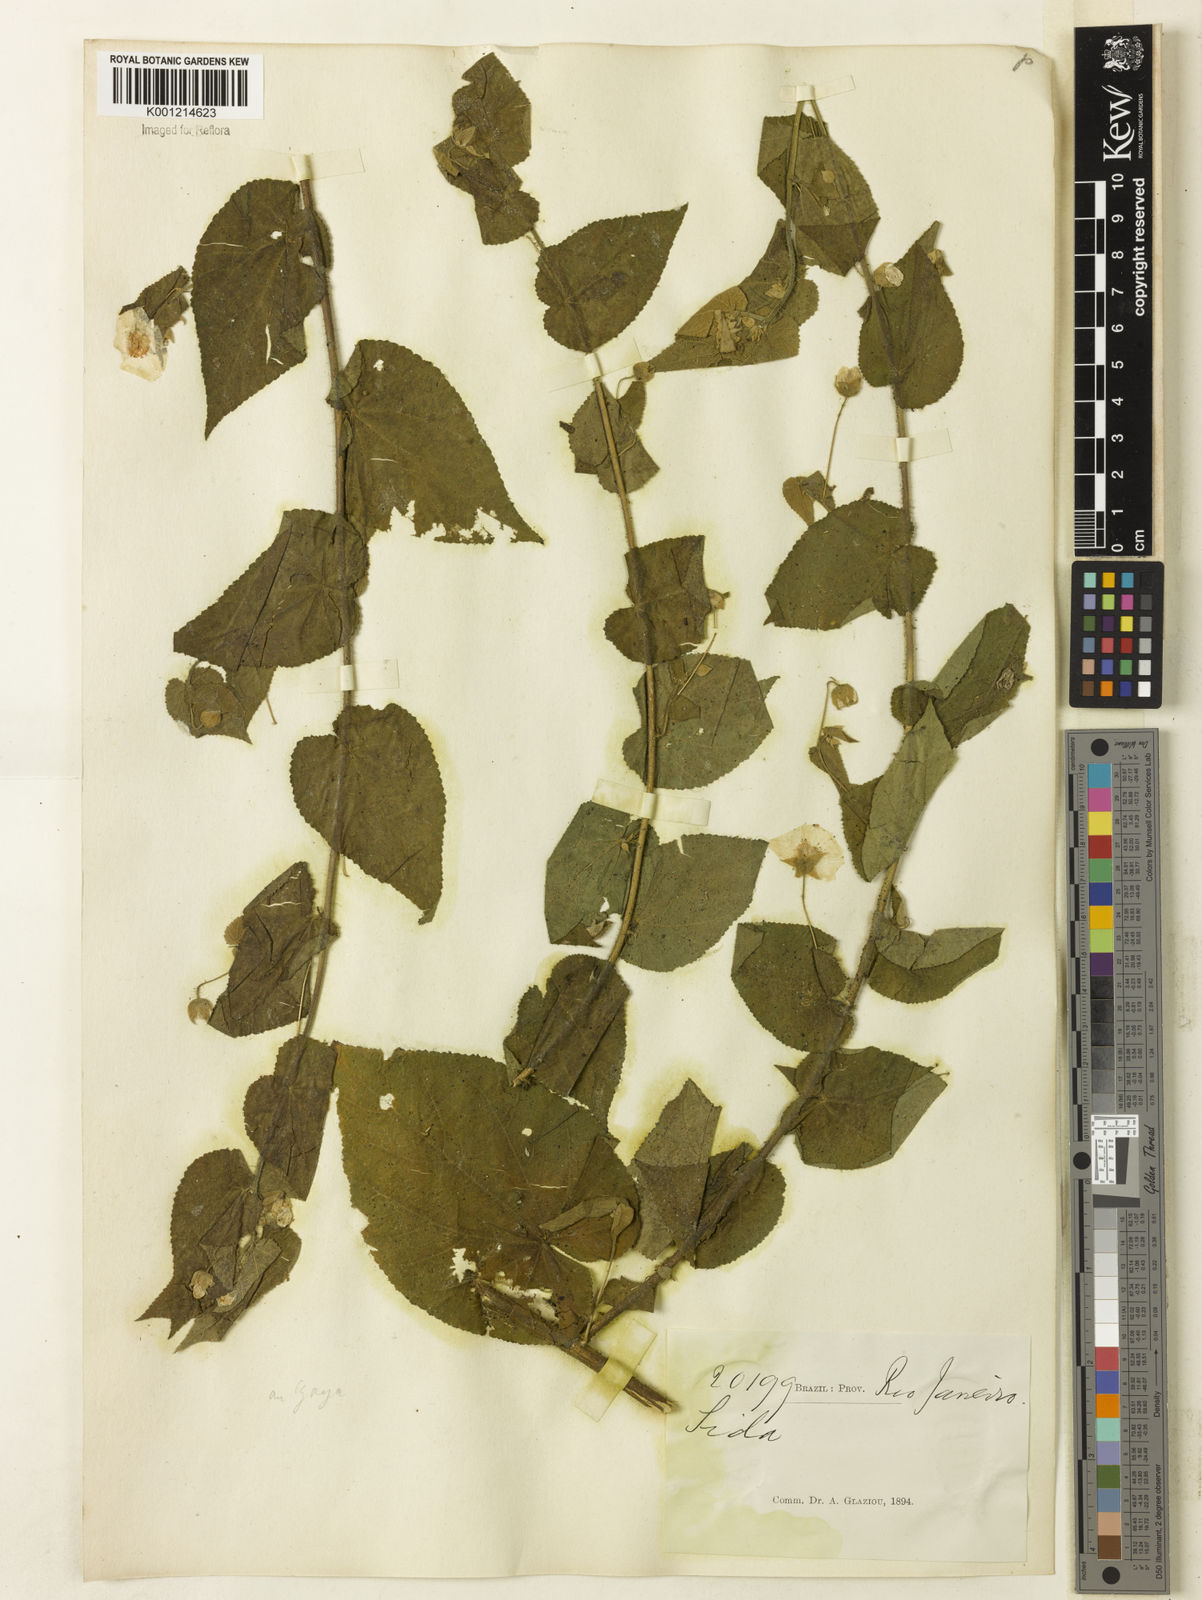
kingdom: Plantae
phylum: Tracheophyta
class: Magnoliopsida
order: Malvales
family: Malvaceae
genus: Gaya
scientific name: Gaya
